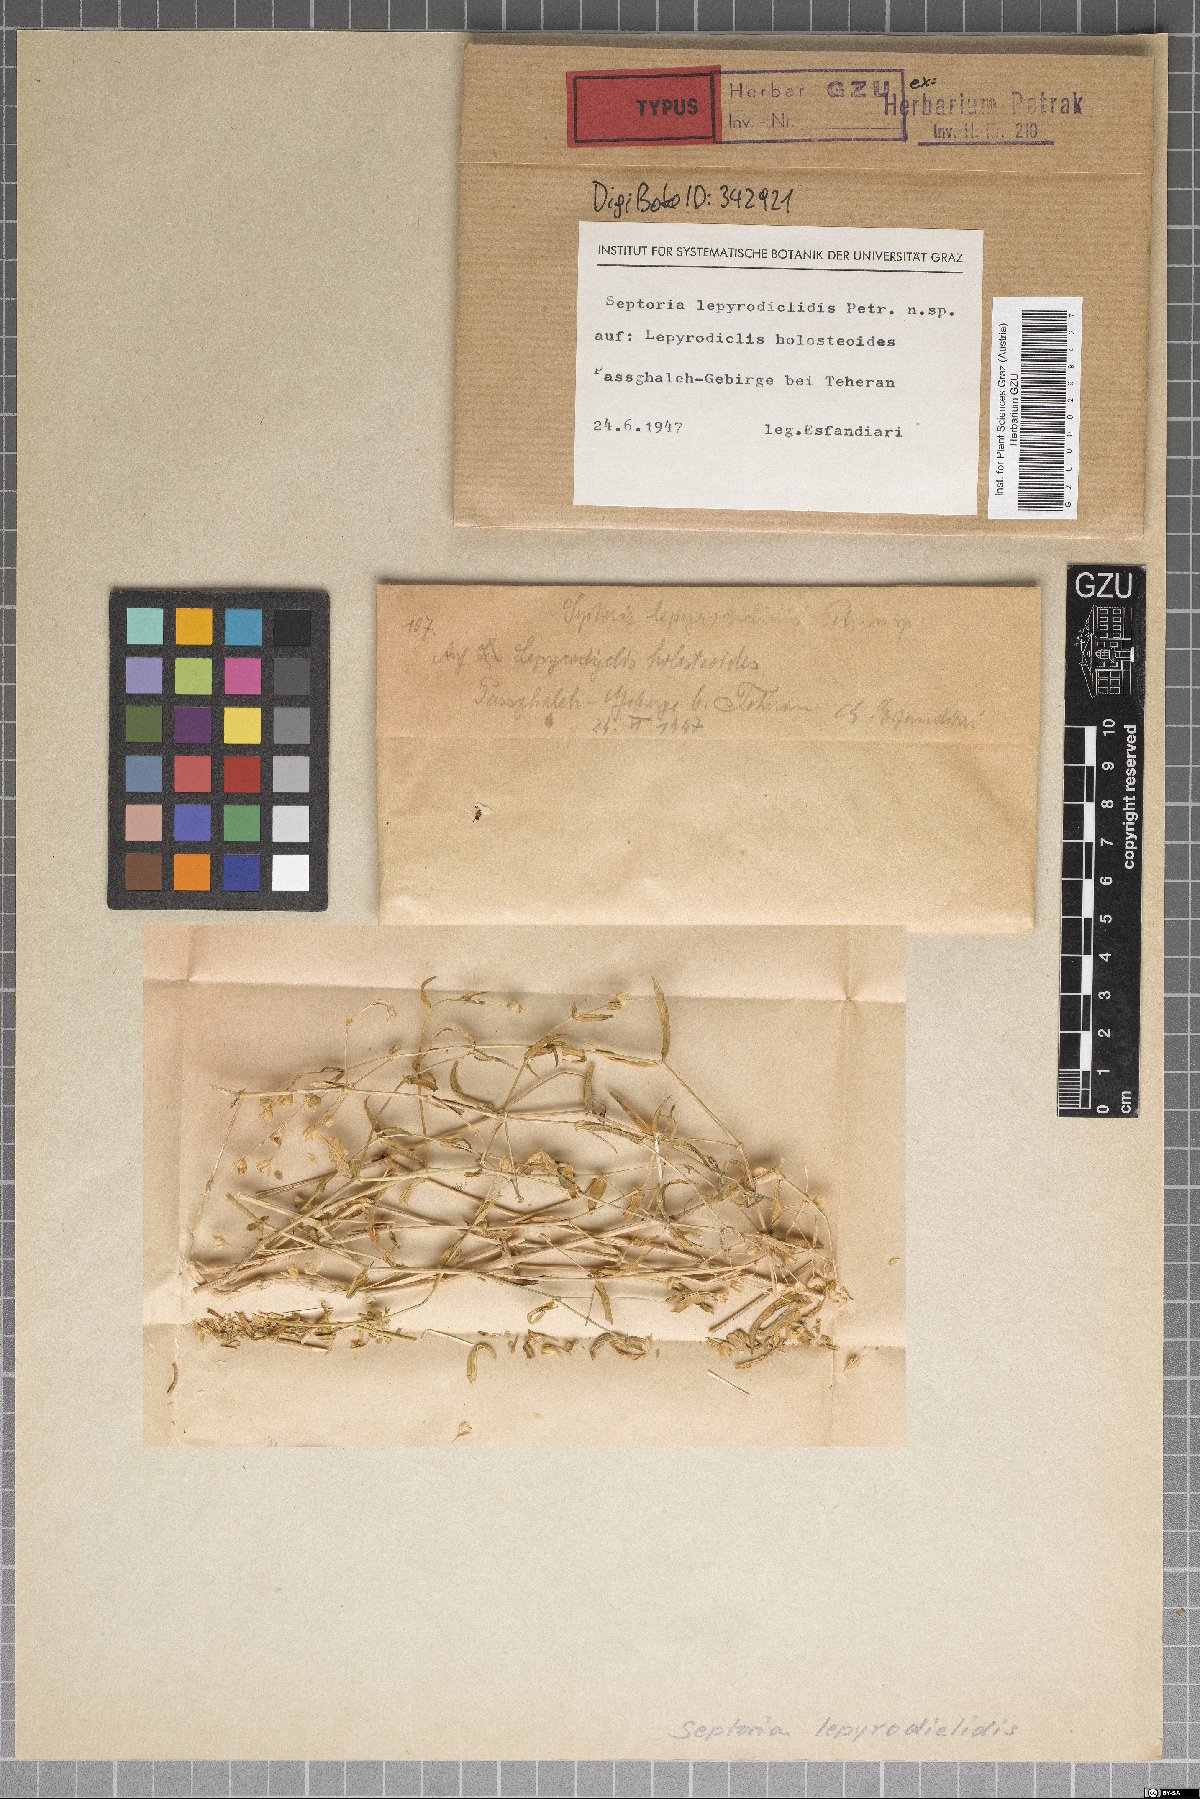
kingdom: Fungi
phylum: Ascomycota
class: Dothideomycetes
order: Mycosphaerellales
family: Mycosphaerellaceae
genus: Septoria
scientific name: Septoria lepyrodiclidis
